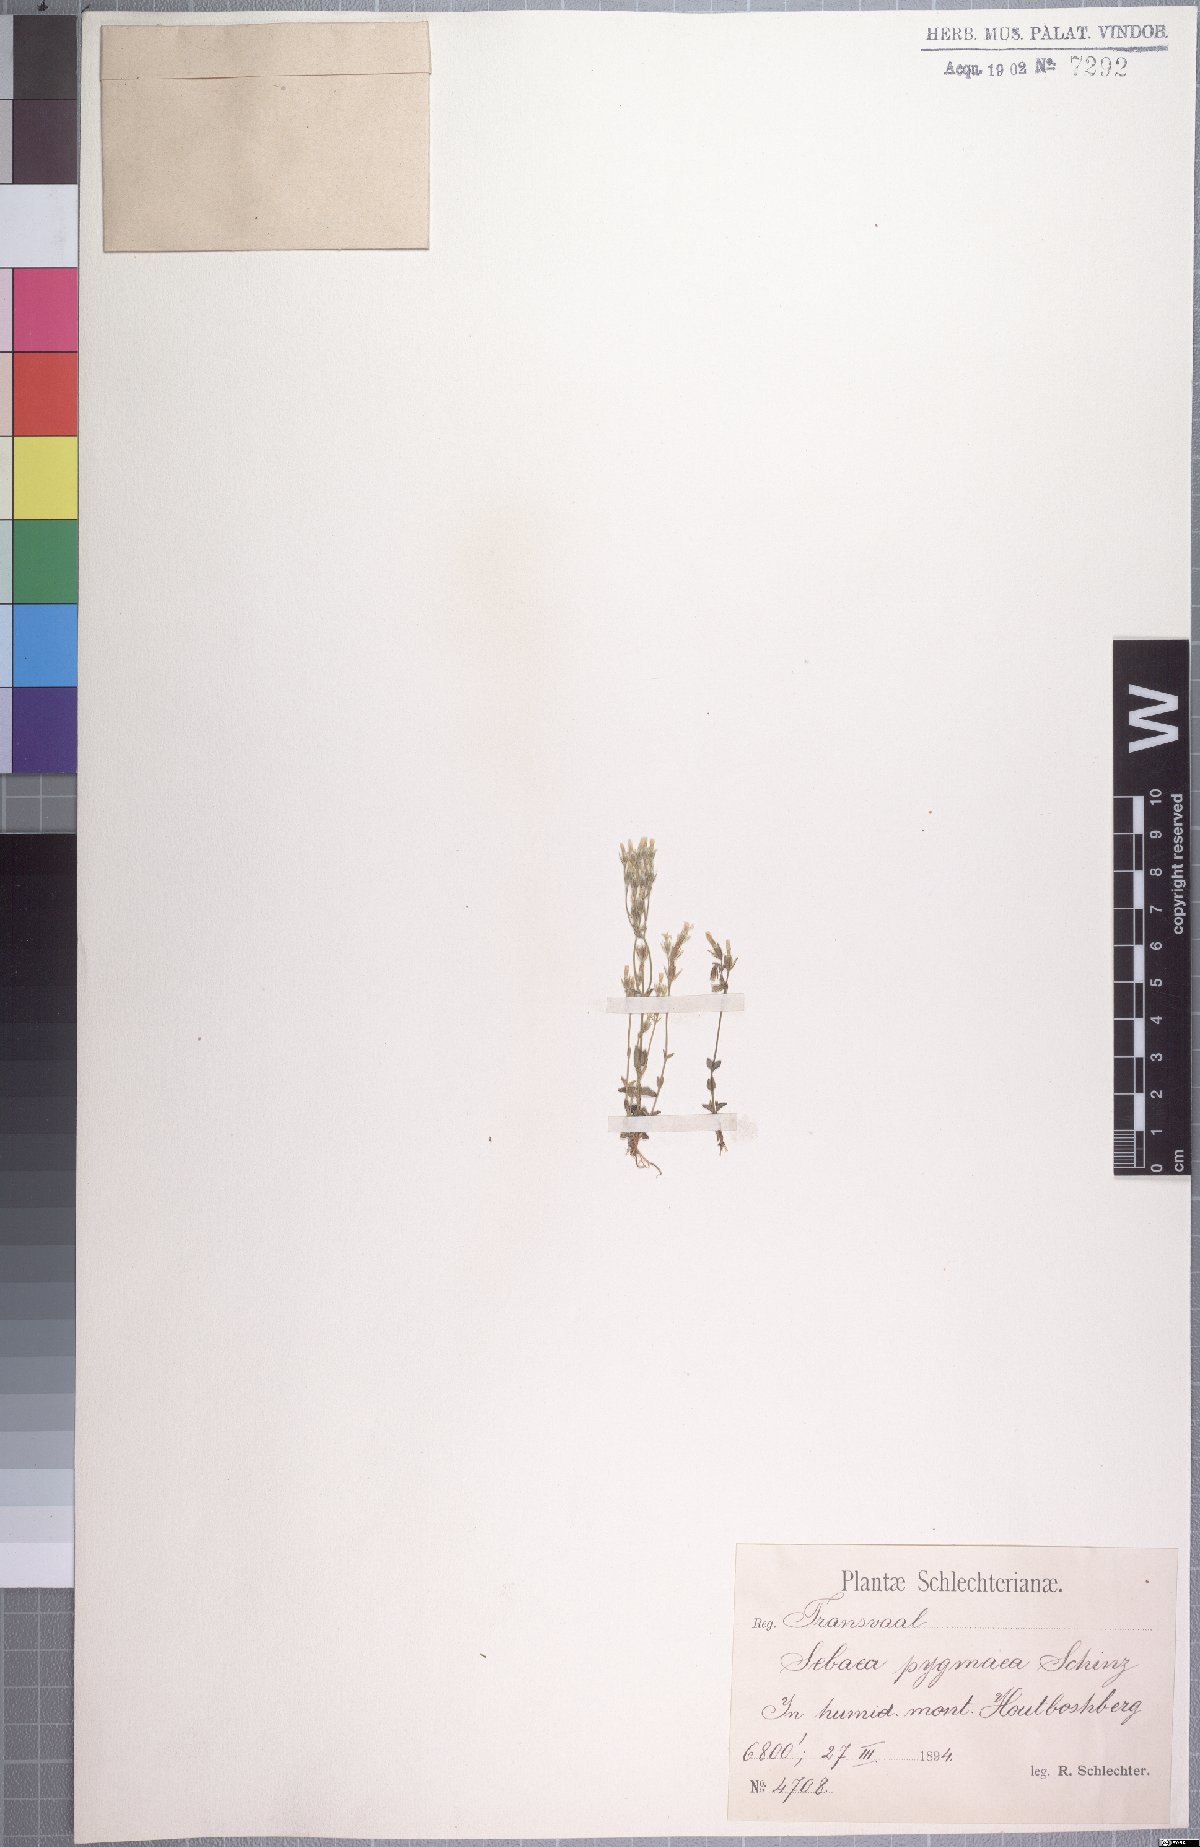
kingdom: Plantae
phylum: Tracheophyta
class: Magnoliopsida
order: Gentianales
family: Gentianaceae
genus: Sebaea
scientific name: Sebaea erosa
